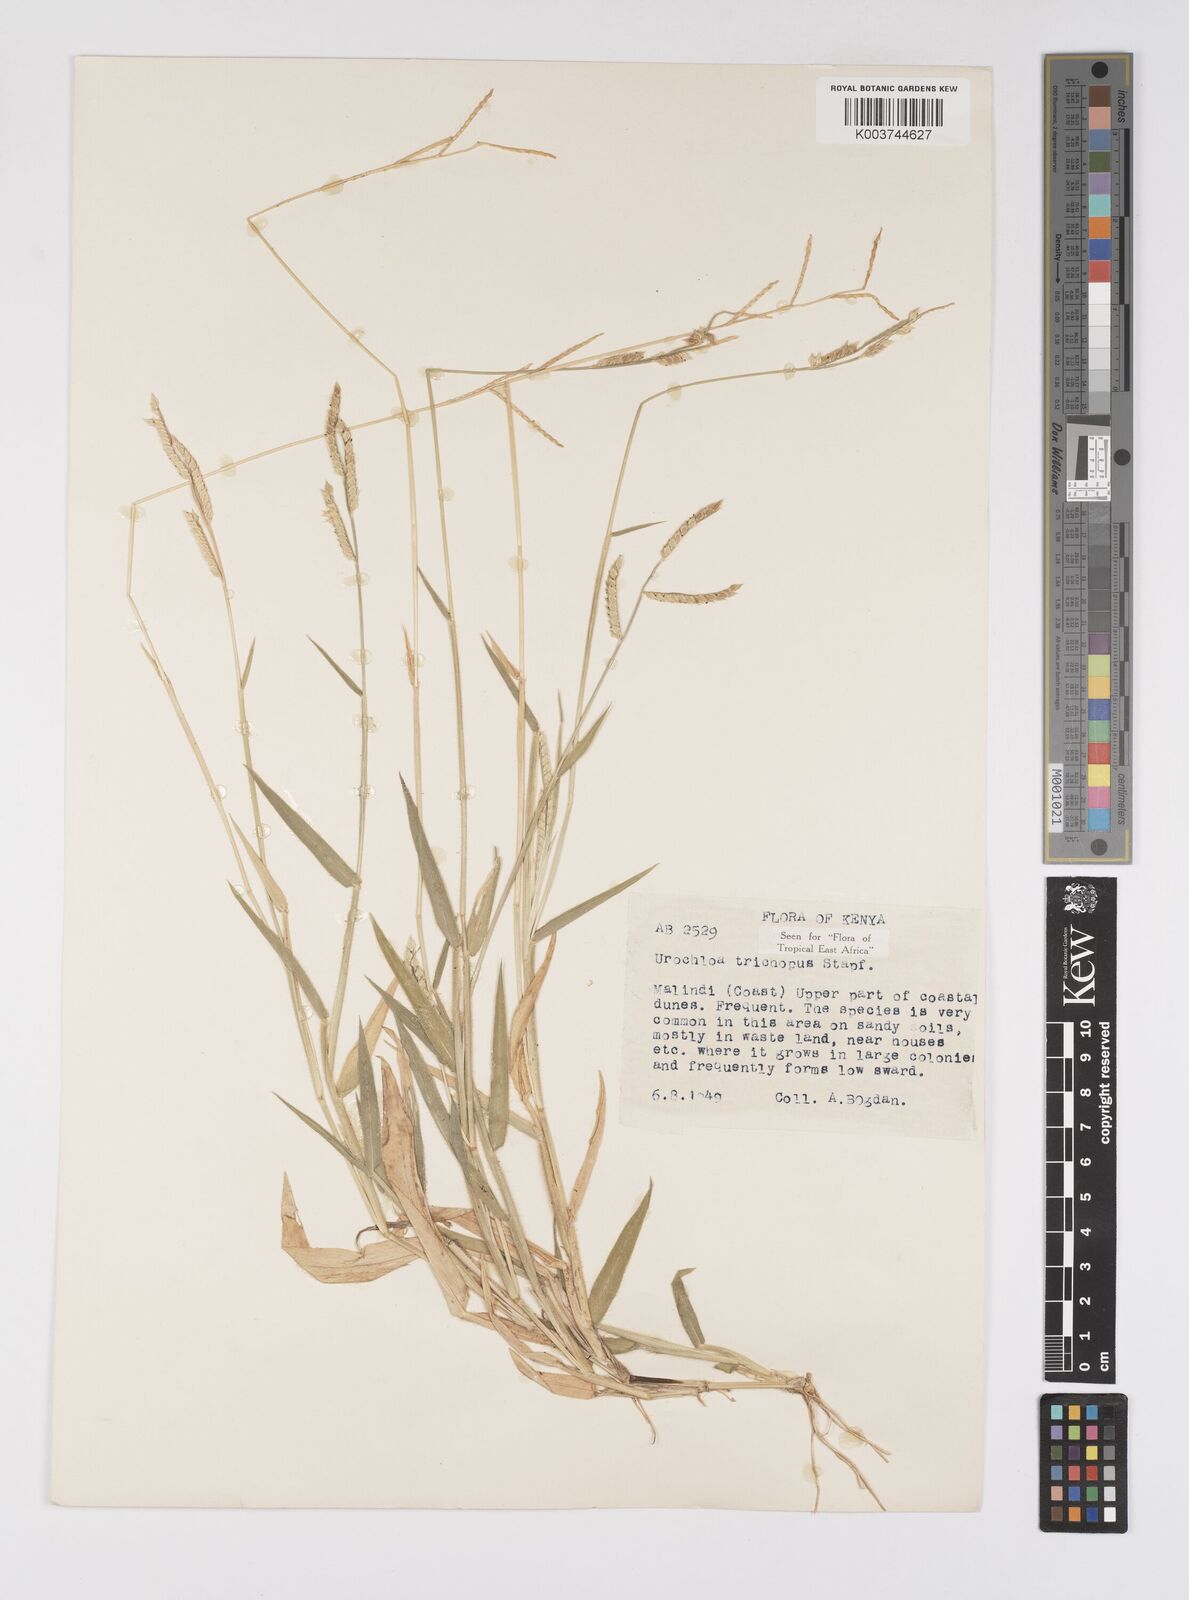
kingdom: Plantae
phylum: Tracheophyta
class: Liliopsida
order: Poales
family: Poaceae
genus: Urochloa
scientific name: Urochloa trichopus
